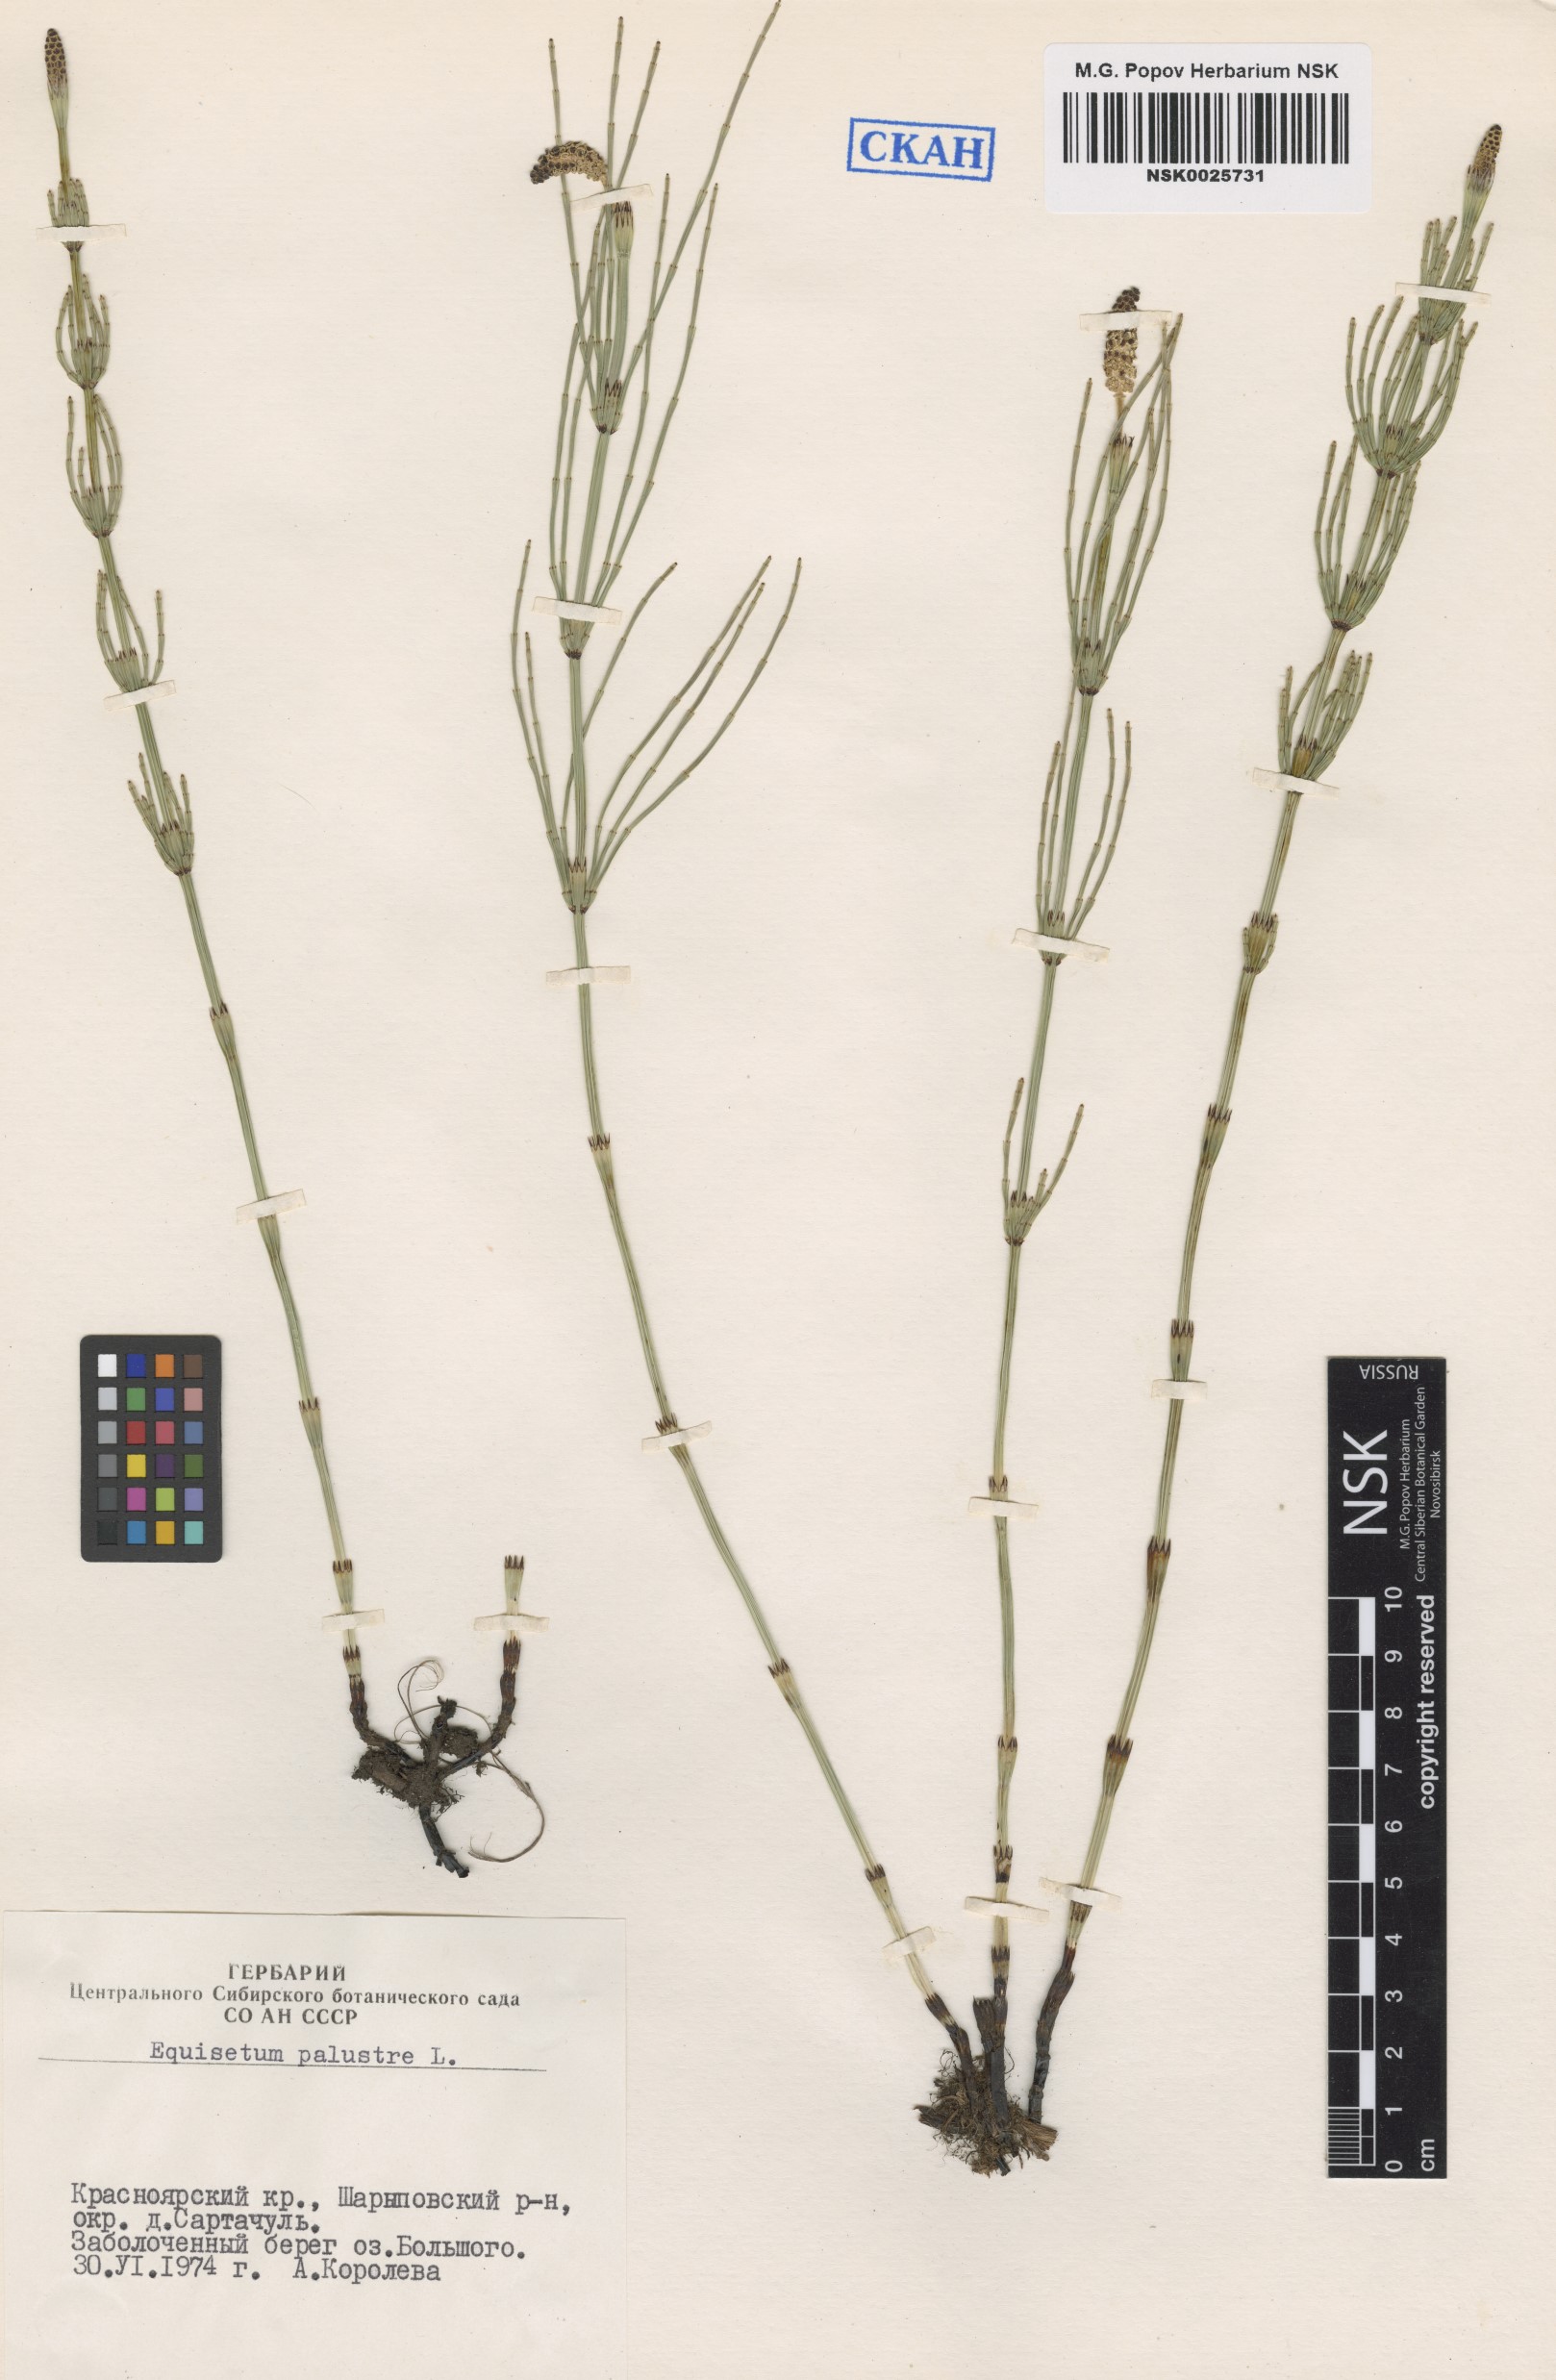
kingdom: Plantae
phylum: Tracheophyta
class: Polypodiopsida
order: Equisetales
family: Equisetaceae
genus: Equisetum
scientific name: Equisetum palustre
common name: Marsh horsetail
